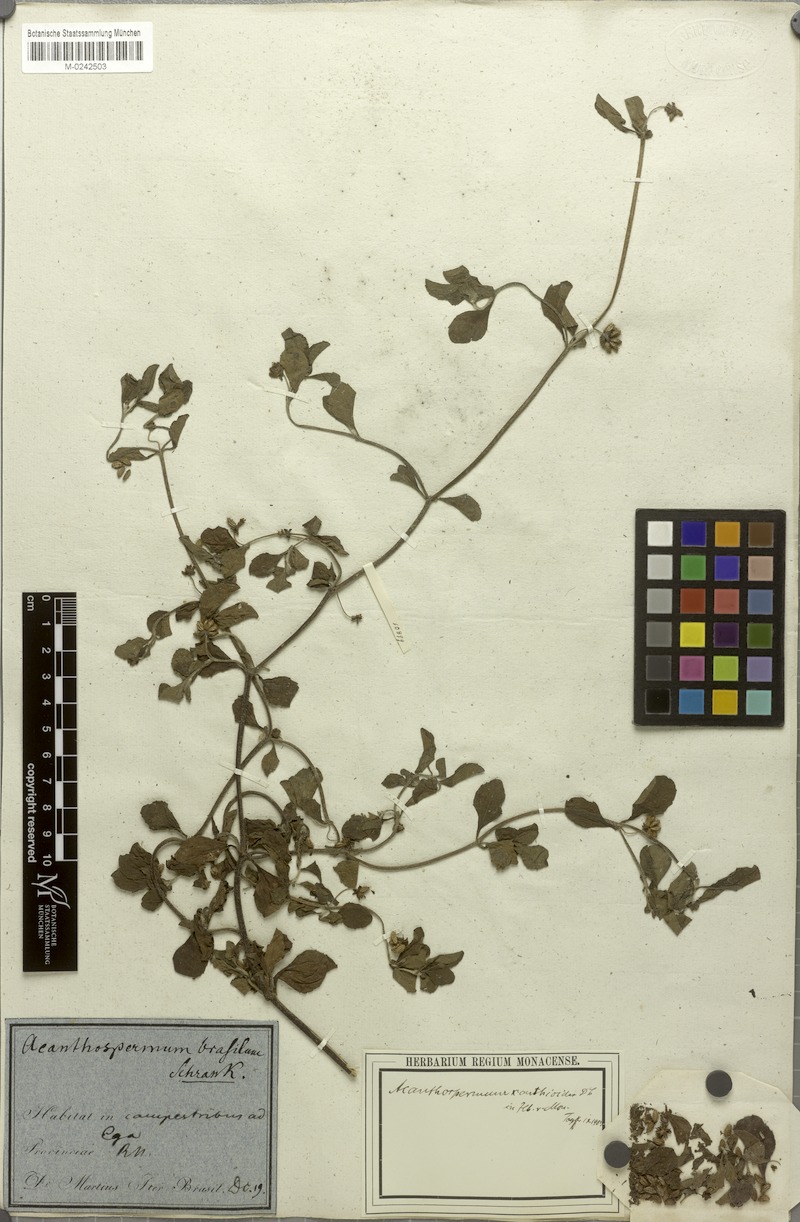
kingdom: Plantae
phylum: Tracheophyta
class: Magnoliopsida
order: Asterales
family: Asteraceae
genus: Acanthospermum
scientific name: Acanthospermum australe
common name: Paraguayan starbur
